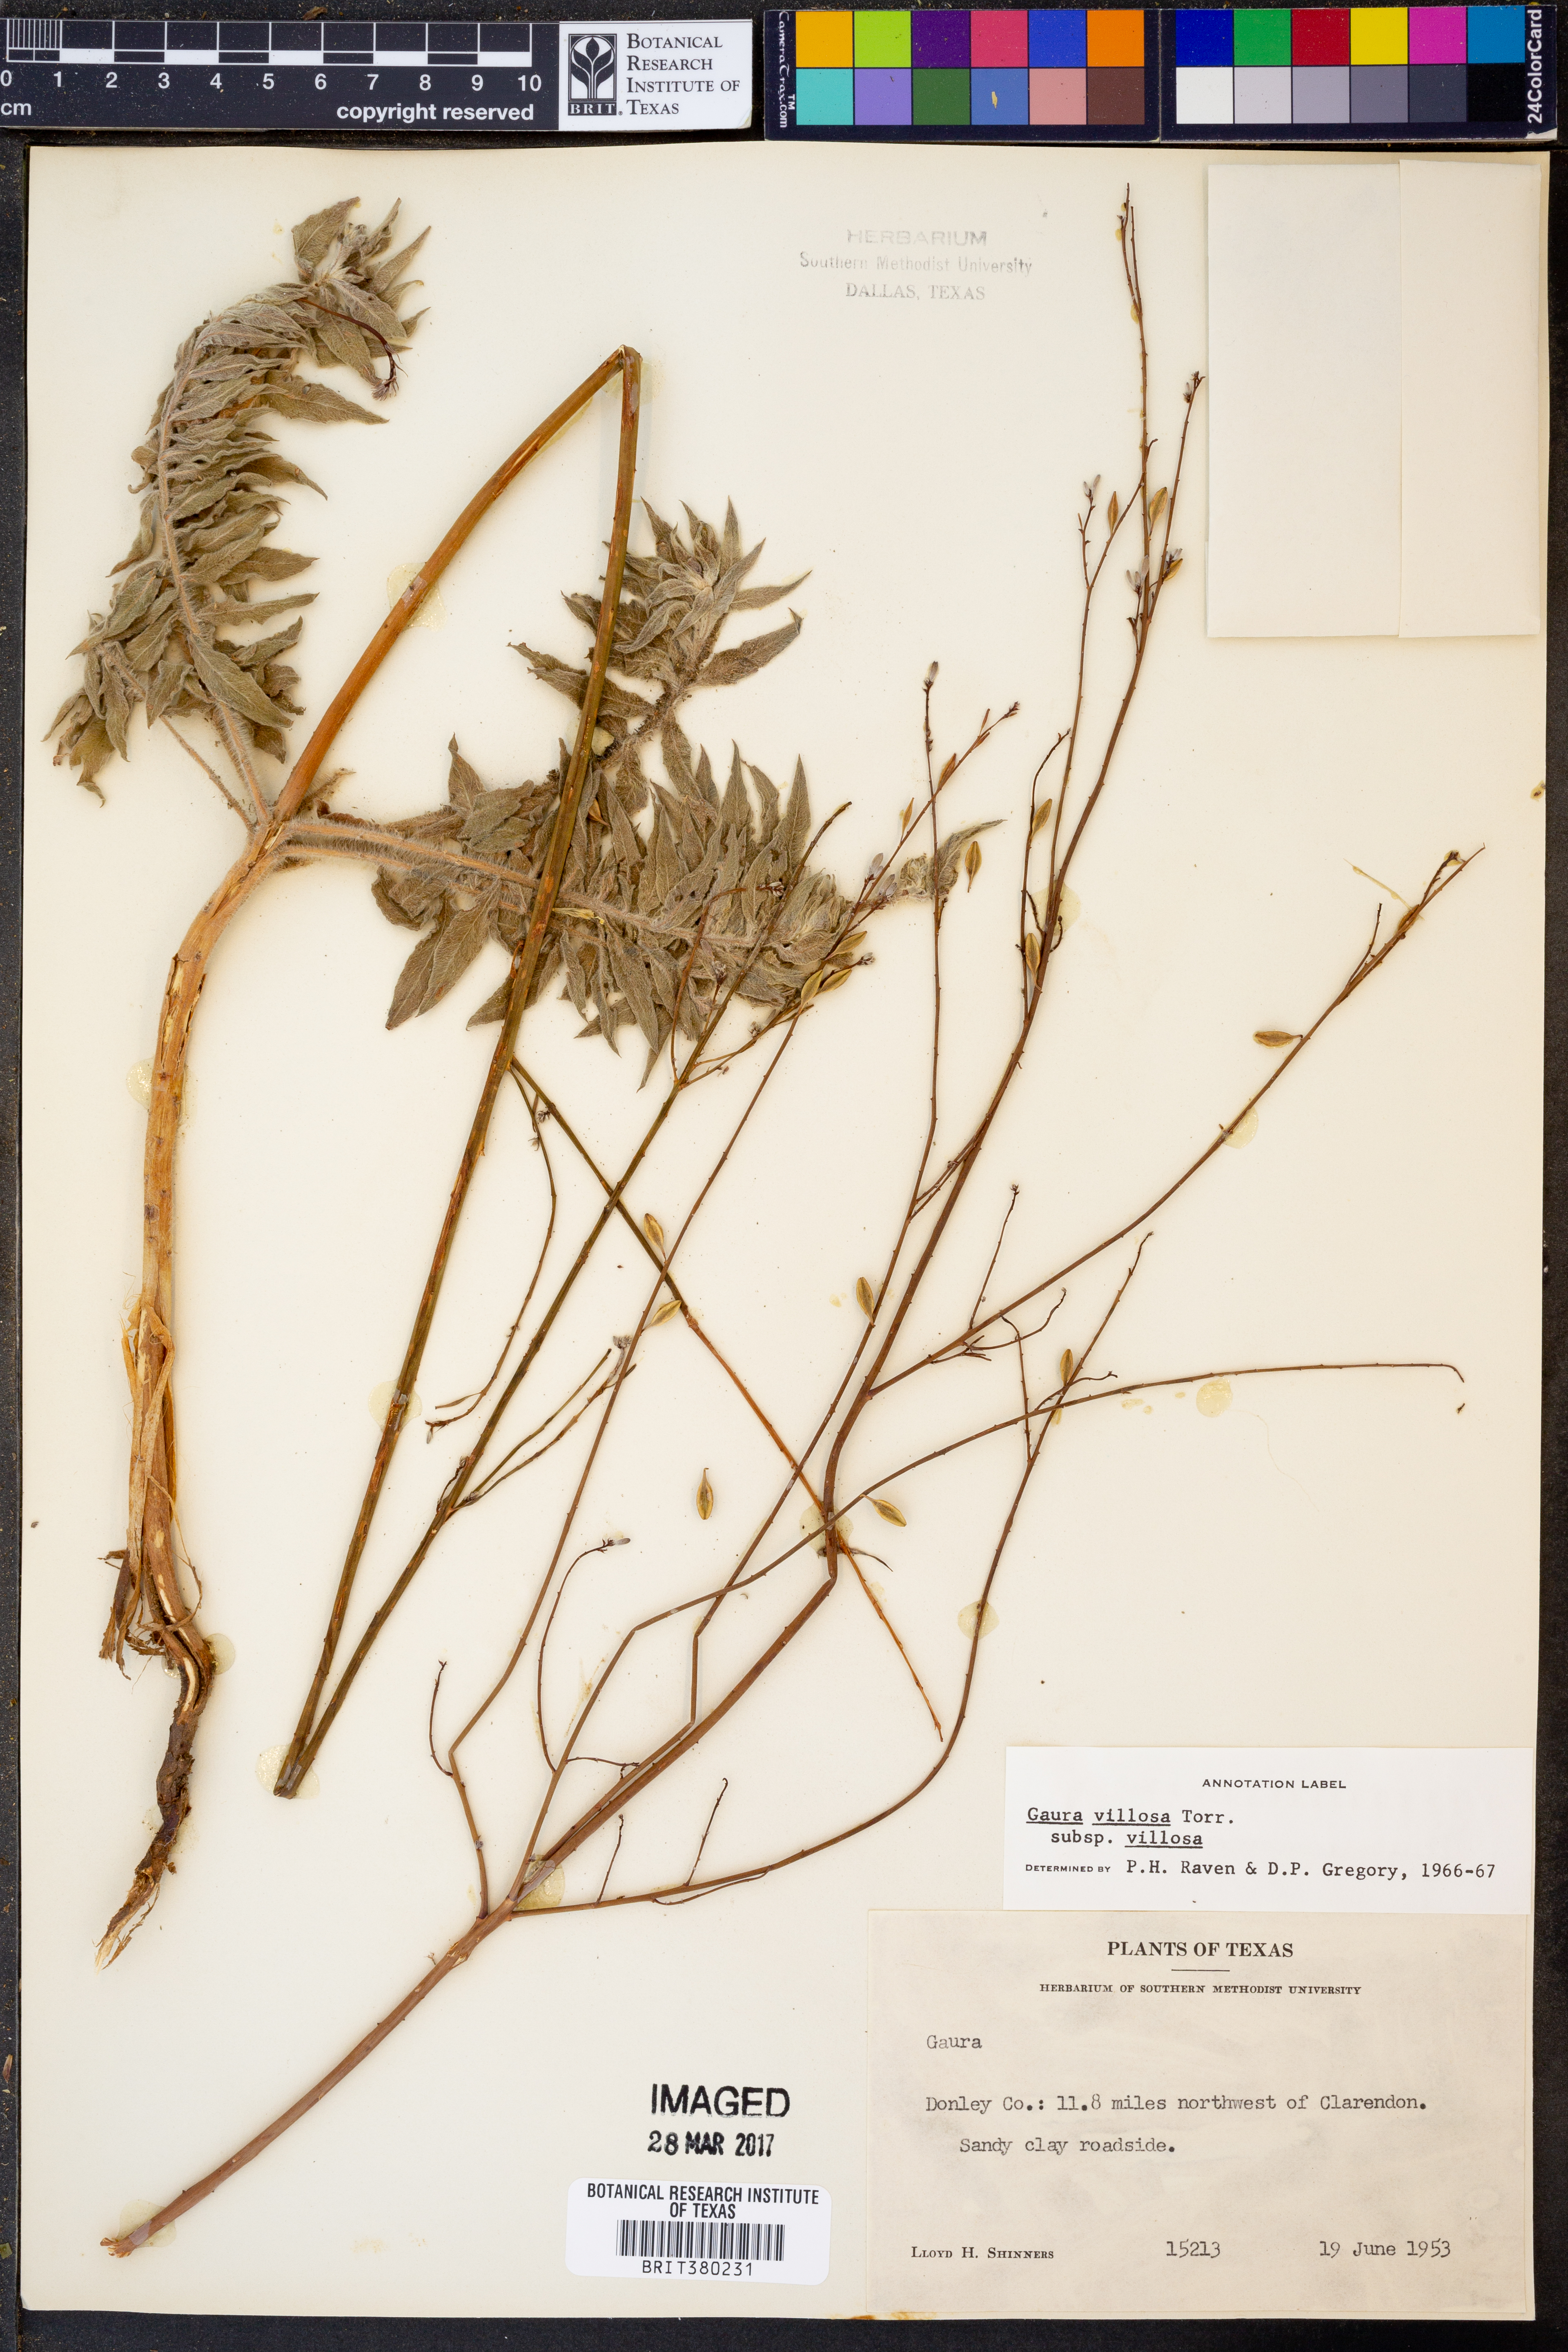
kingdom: Plantae
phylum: Tracheophyta
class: Magnoliopsida
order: Myrtales
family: Onagraceae
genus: Oenothera
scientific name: Oenothera cinerea
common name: Woolly beeblossom
